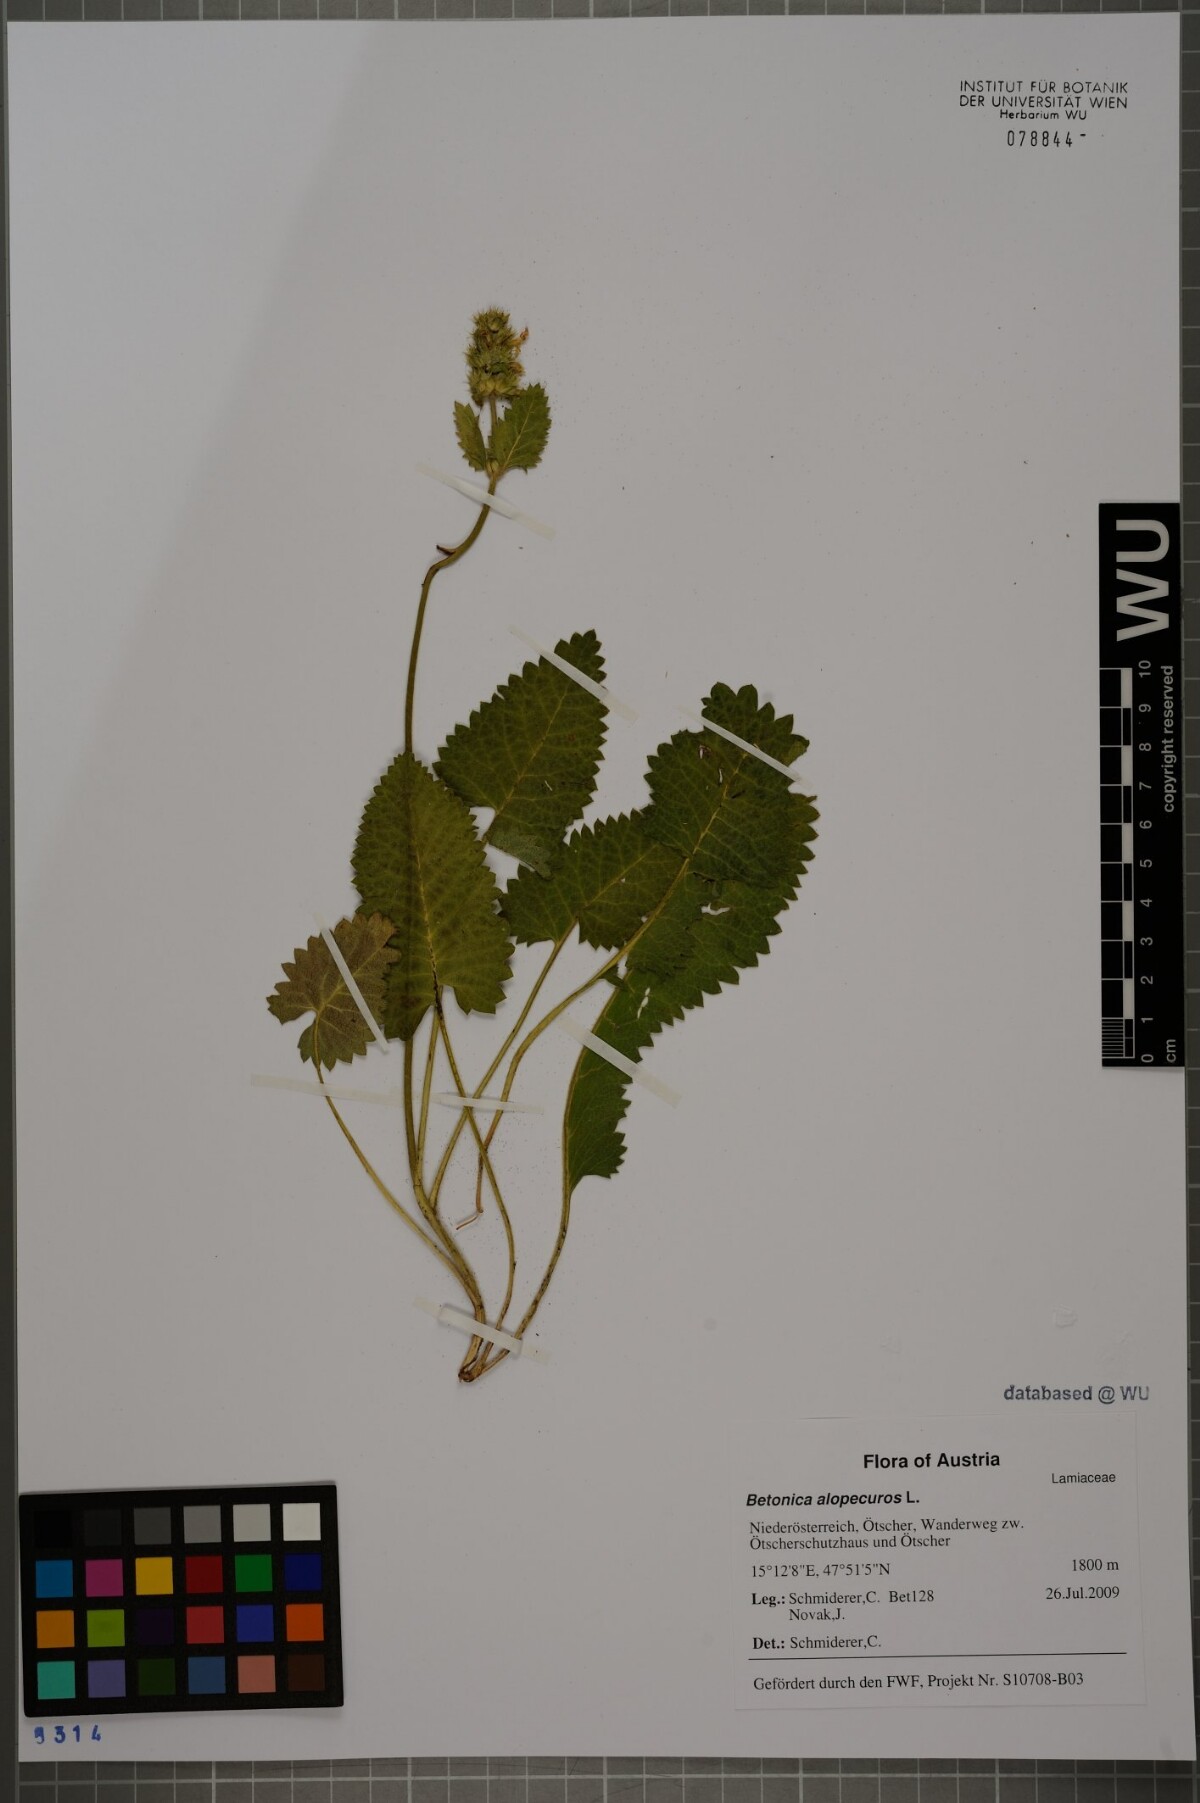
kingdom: Plantae
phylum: Tracheophyta
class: Magnoliopsida
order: Lamiales
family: Lamiaceae
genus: Betonica
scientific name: Betonica alopecuros
